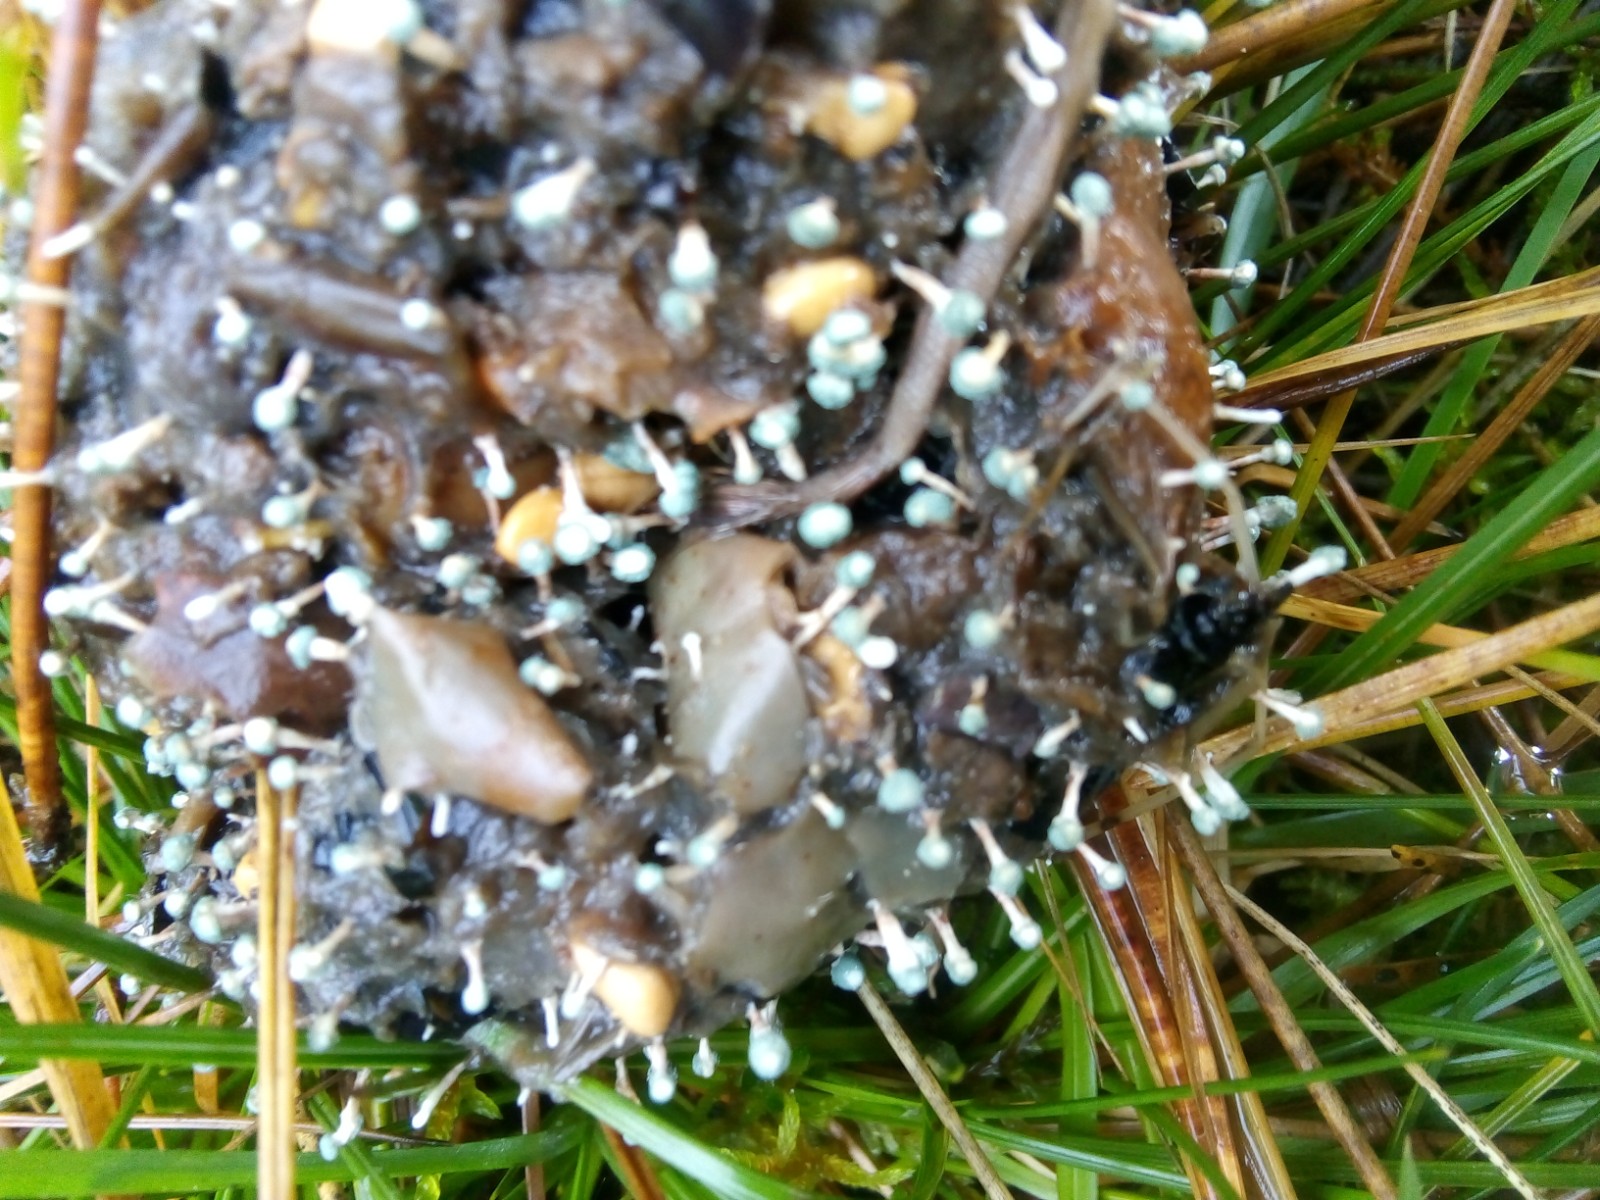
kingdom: Fungi
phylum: Ascomycota
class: Eurotiomycetes
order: Eurotiales
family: Aspergillaceae
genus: Penicillium
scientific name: Penicillium vulpinum
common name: kølle-penselskimmel
